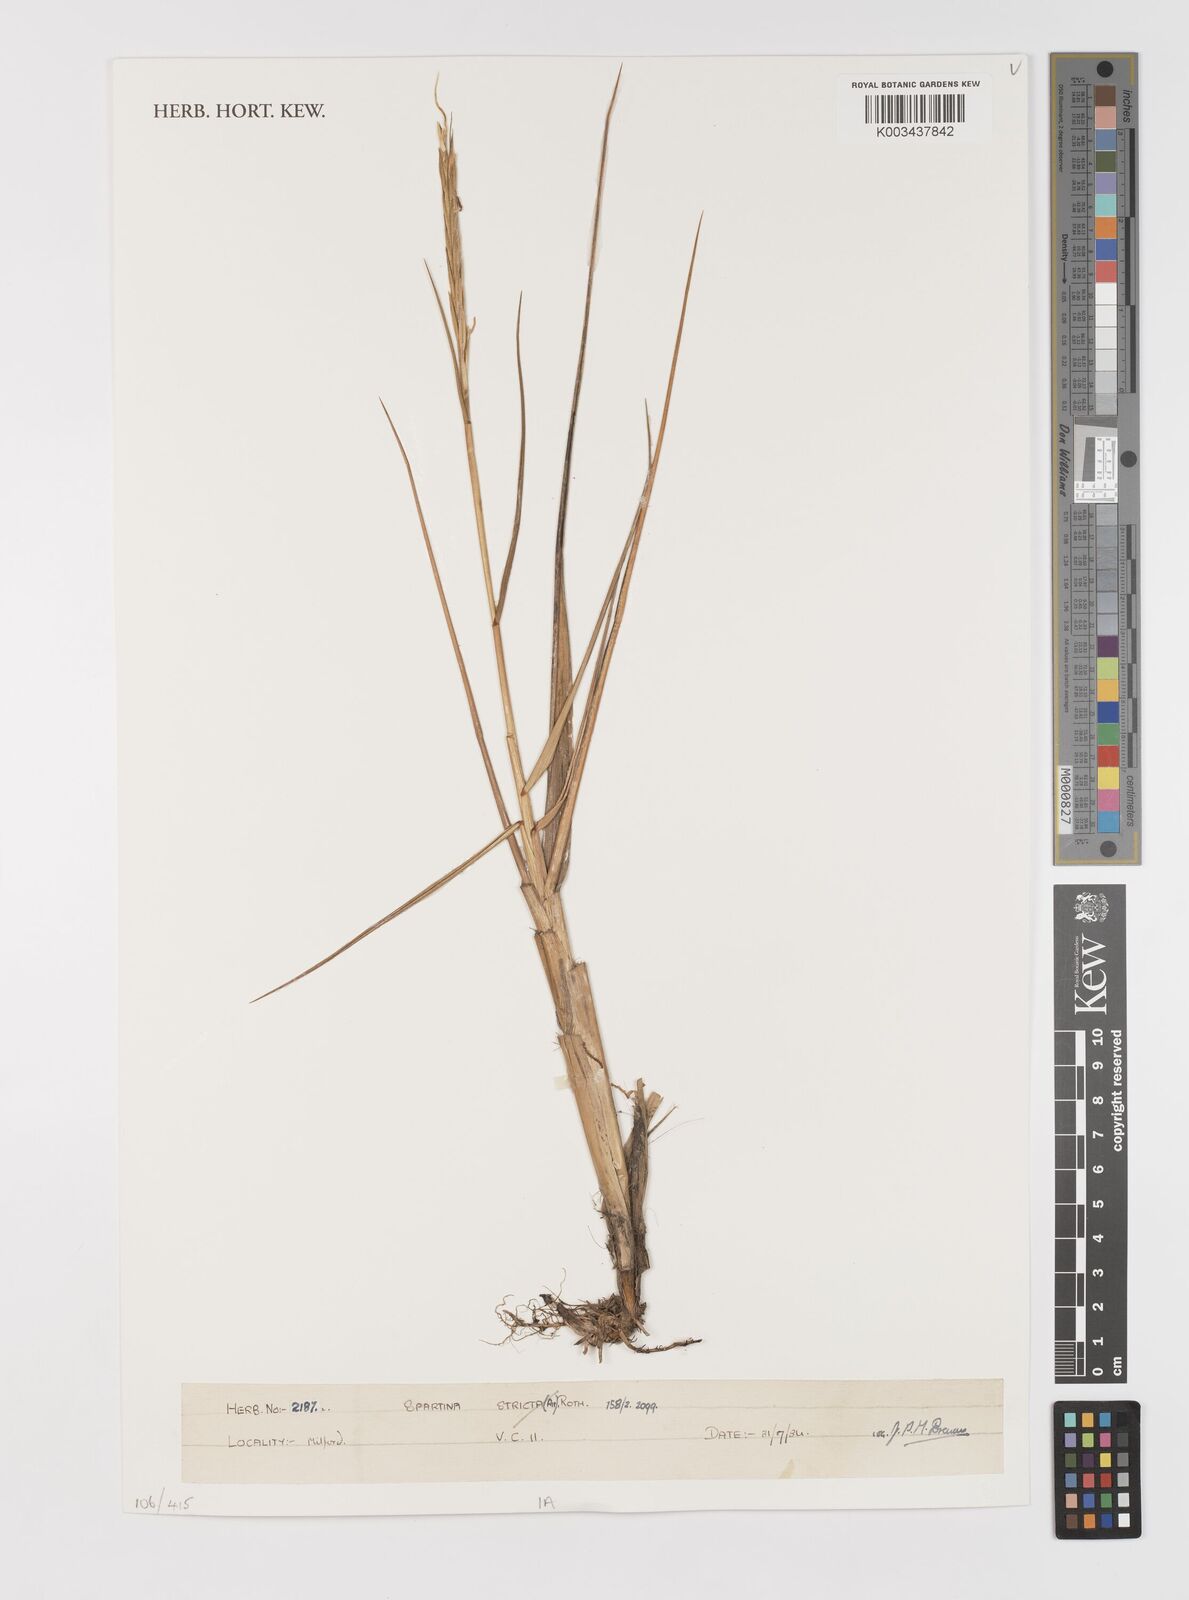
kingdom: Animalia
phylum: Mollusca
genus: Spartina
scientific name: Spartina
